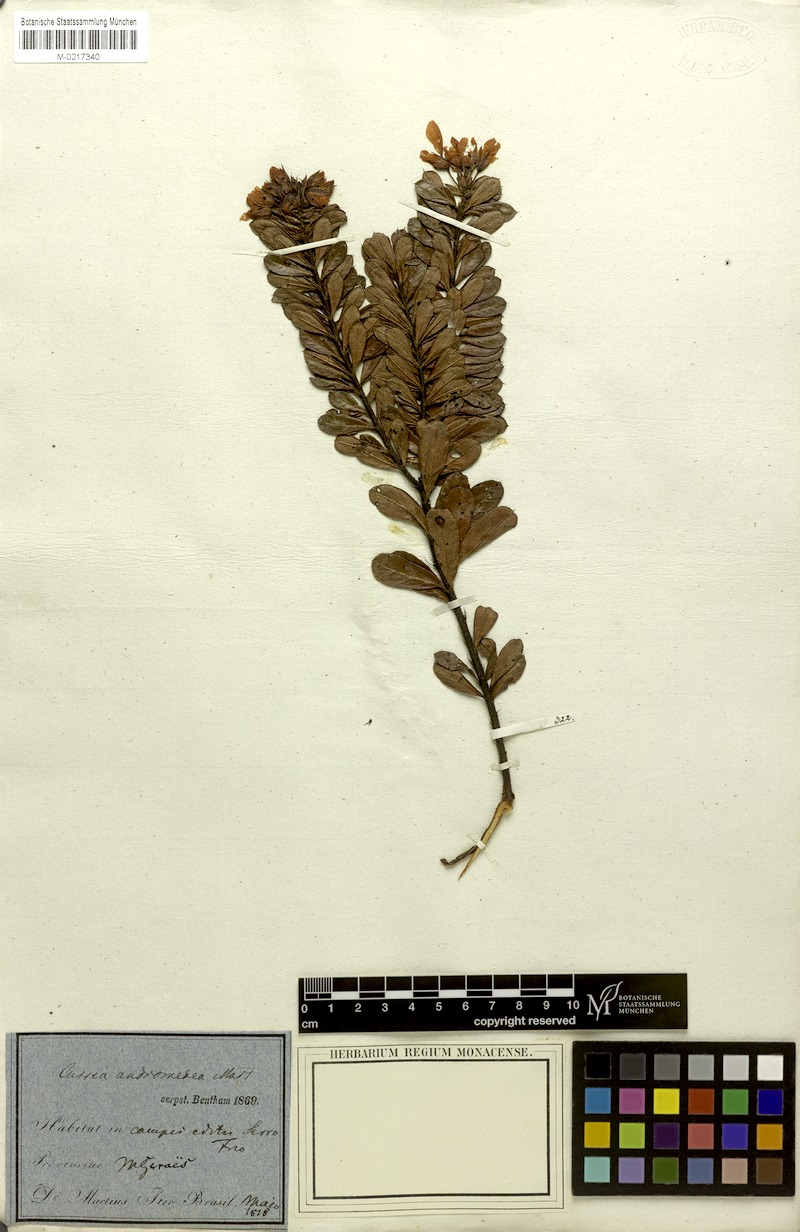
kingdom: Plantae
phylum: Tracheophyta
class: Magnoliopsida
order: Fabales
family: Fabaceae
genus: Chamaecrista
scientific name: Chamaecrista andromedea
